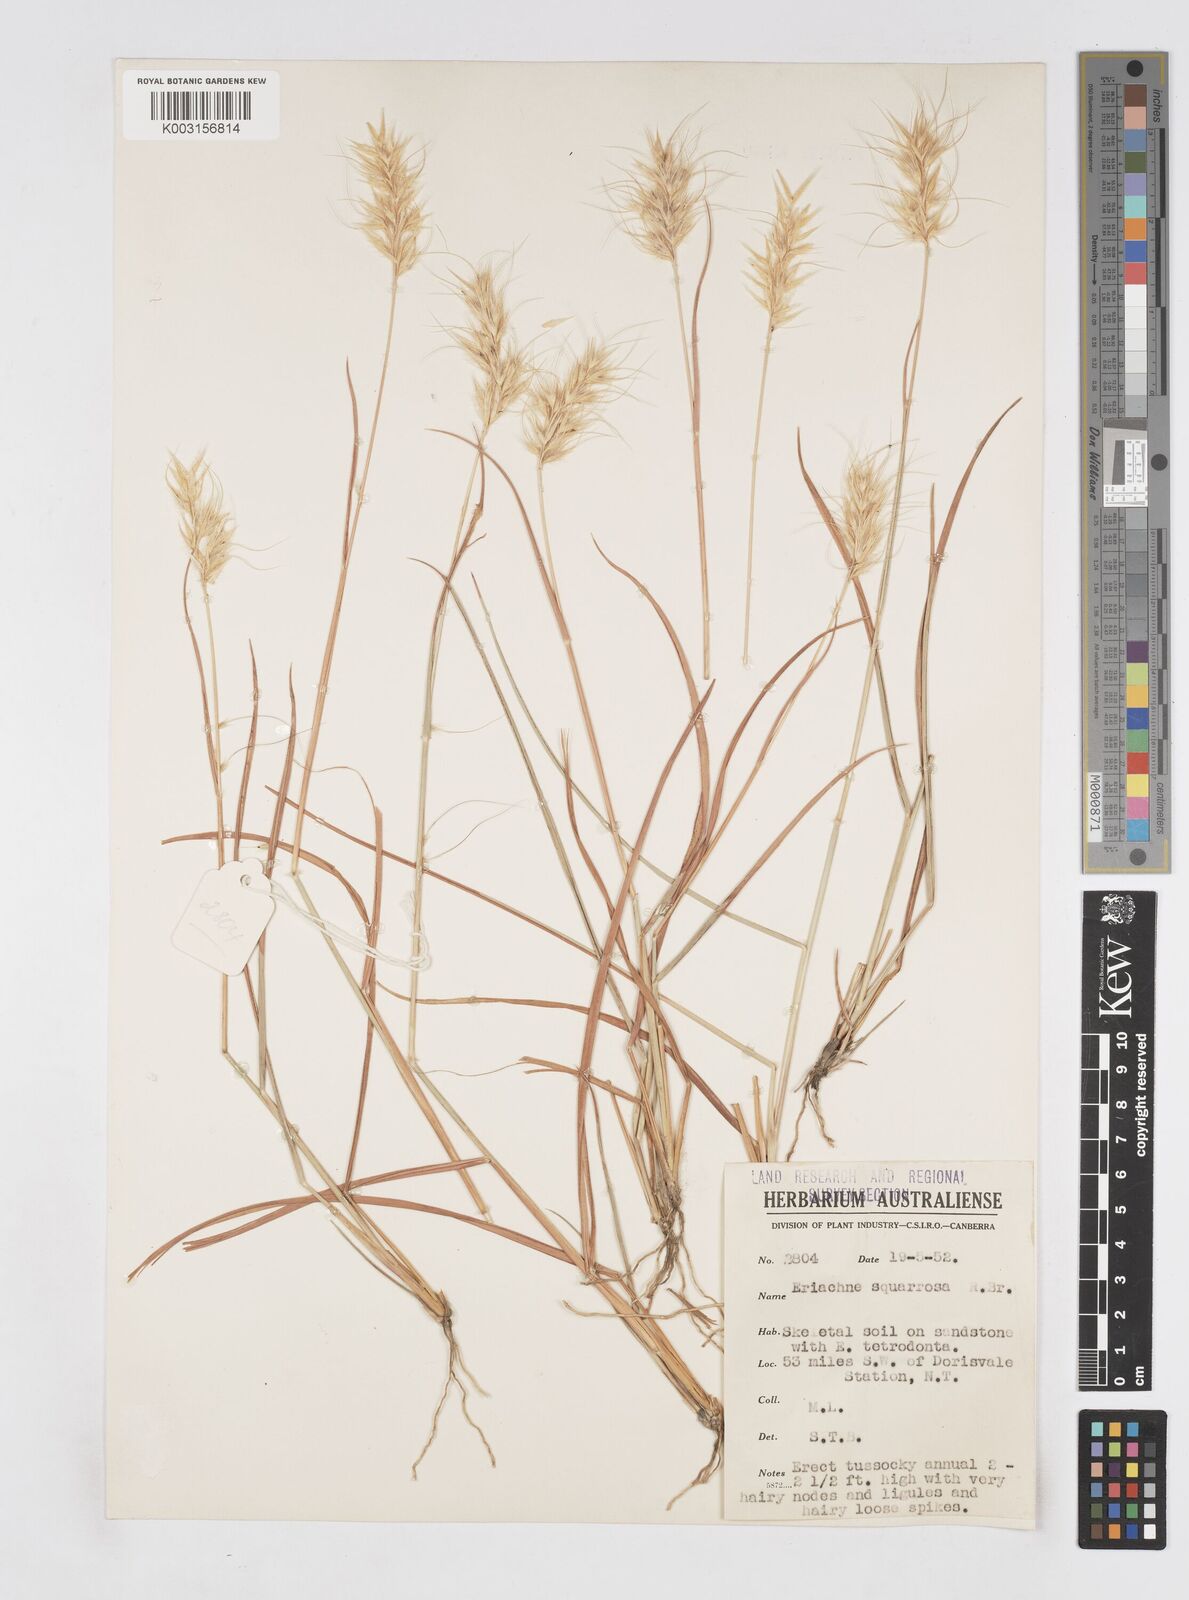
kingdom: Plantae
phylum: Tracheophyta
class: Liliopsida
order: Poales
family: Poaceae
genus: Eriachne
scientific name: Eriachne squarrosa
